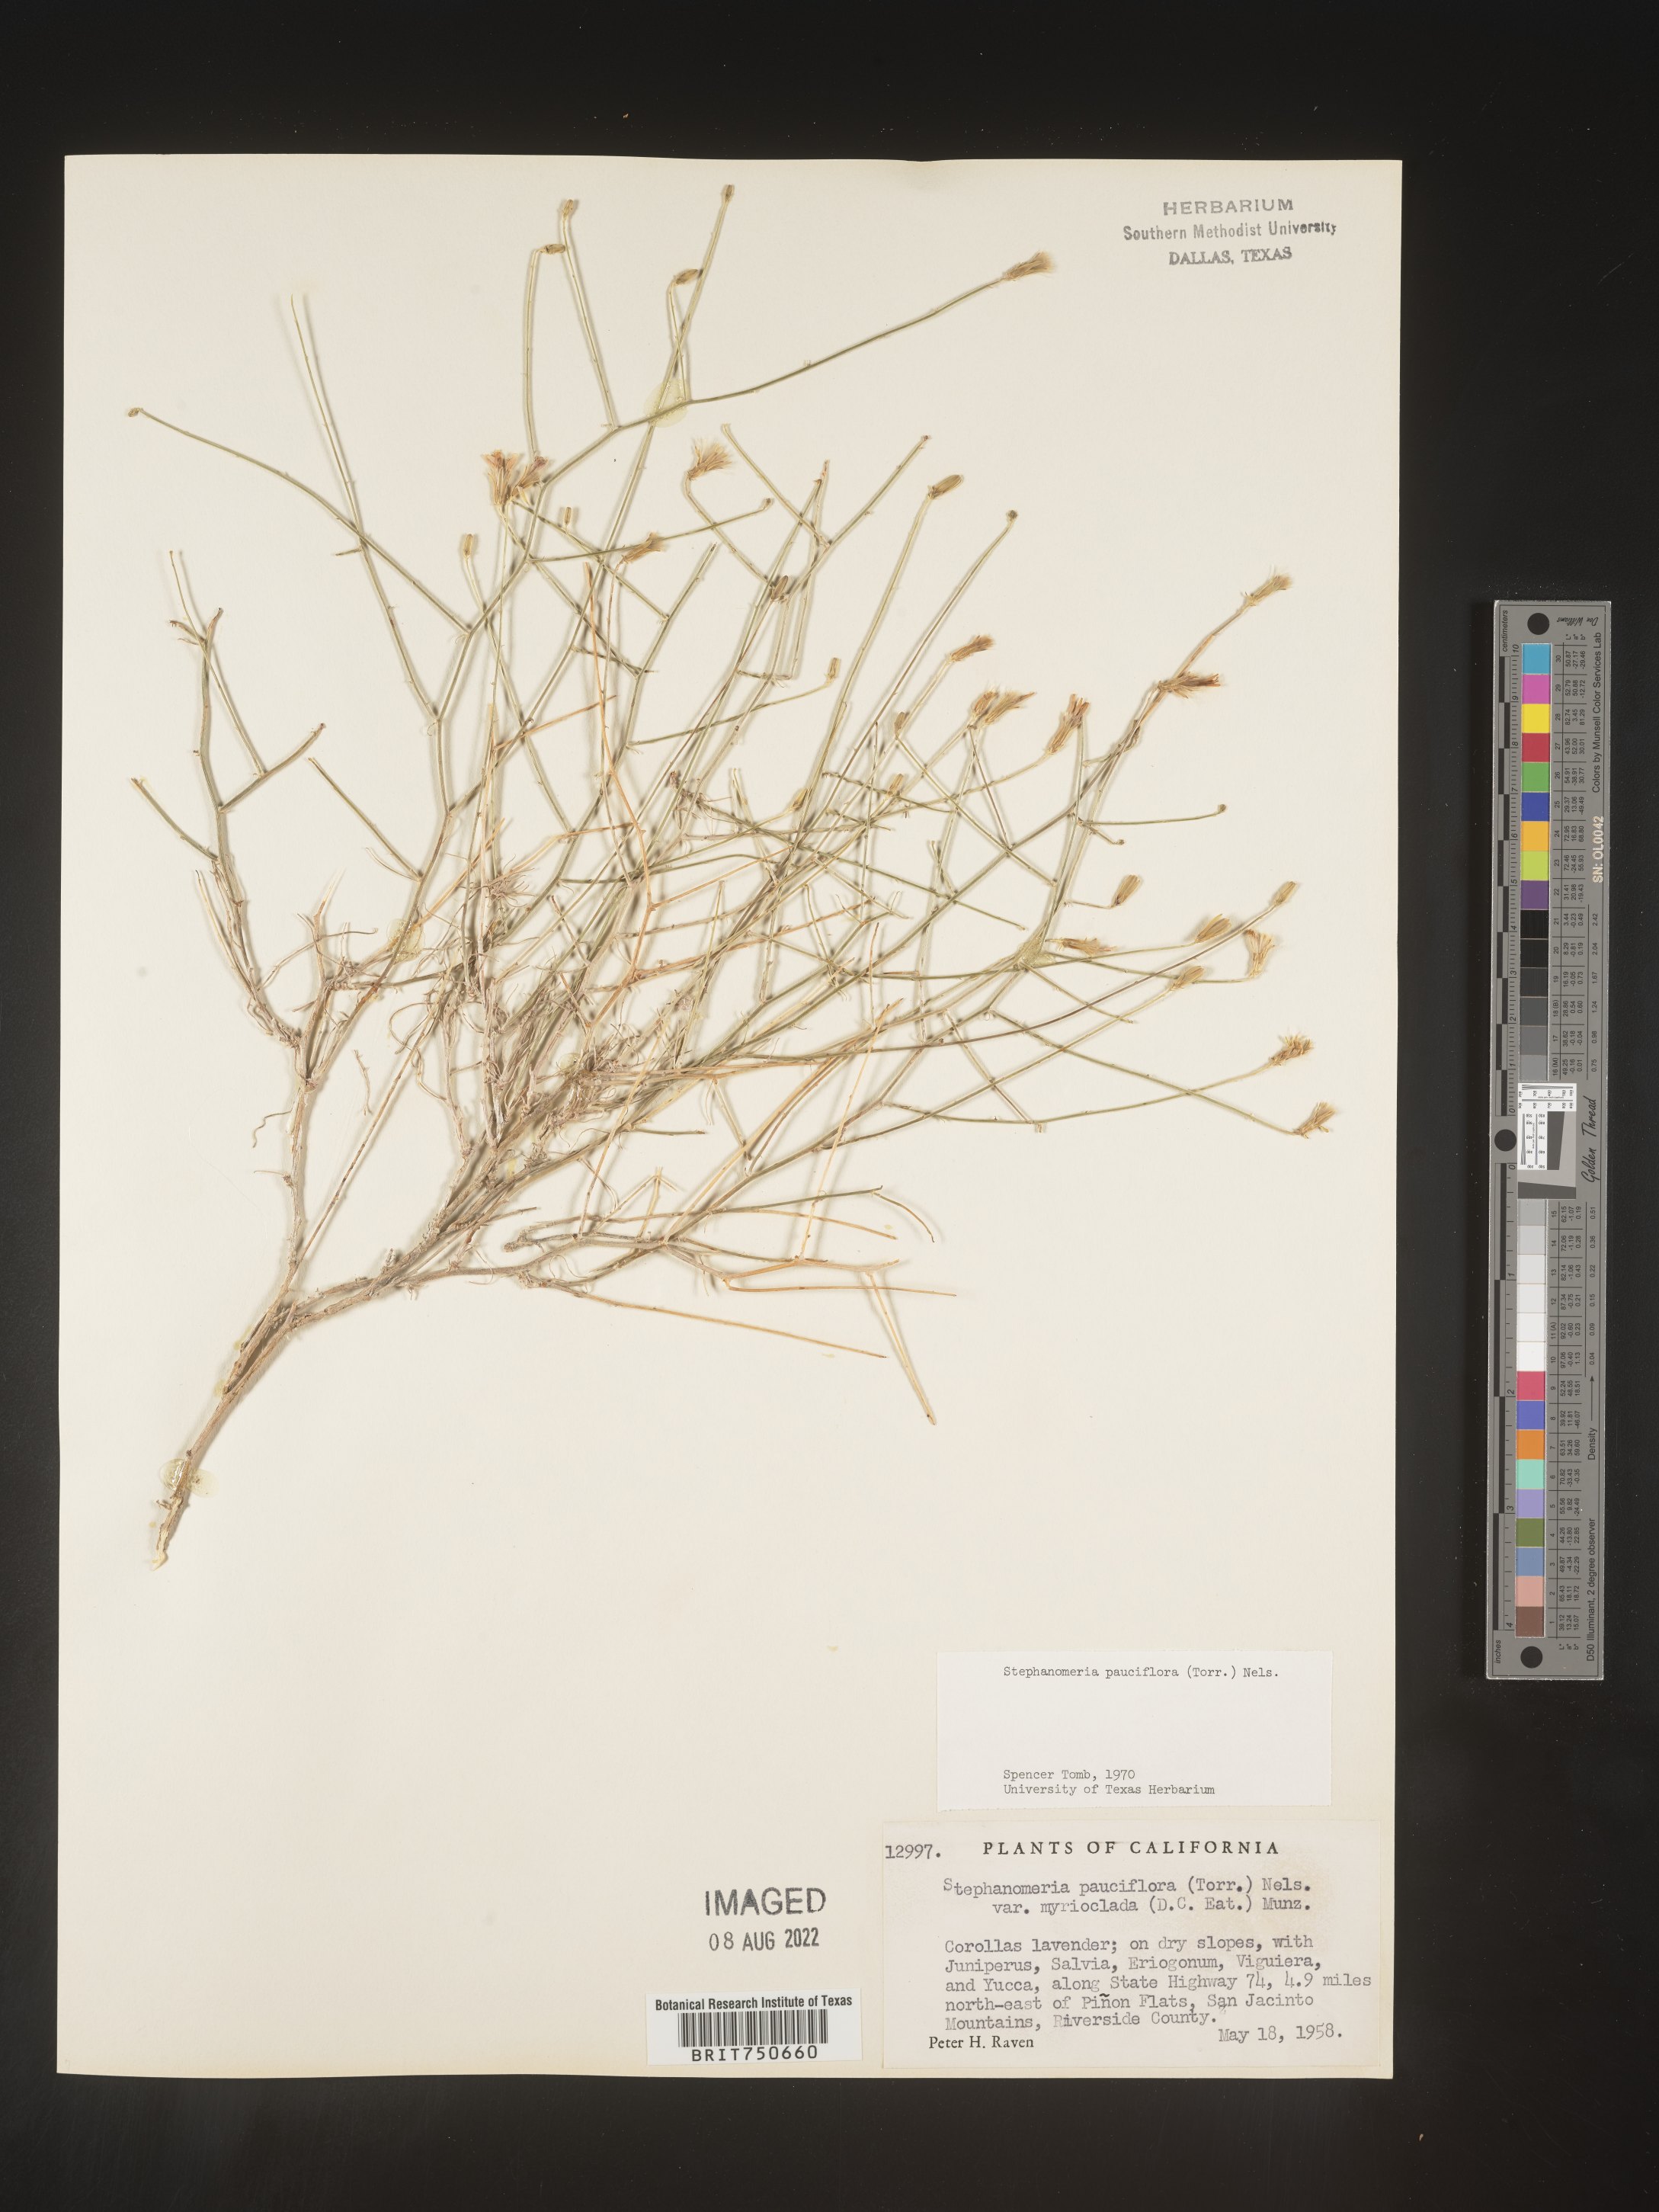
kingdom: Plantae
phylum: Tracheophyta
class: Magnoliopsida
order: Asterales
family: Asteraceae
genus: Stephanomeria
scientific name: Stephanomeria pauciflora
